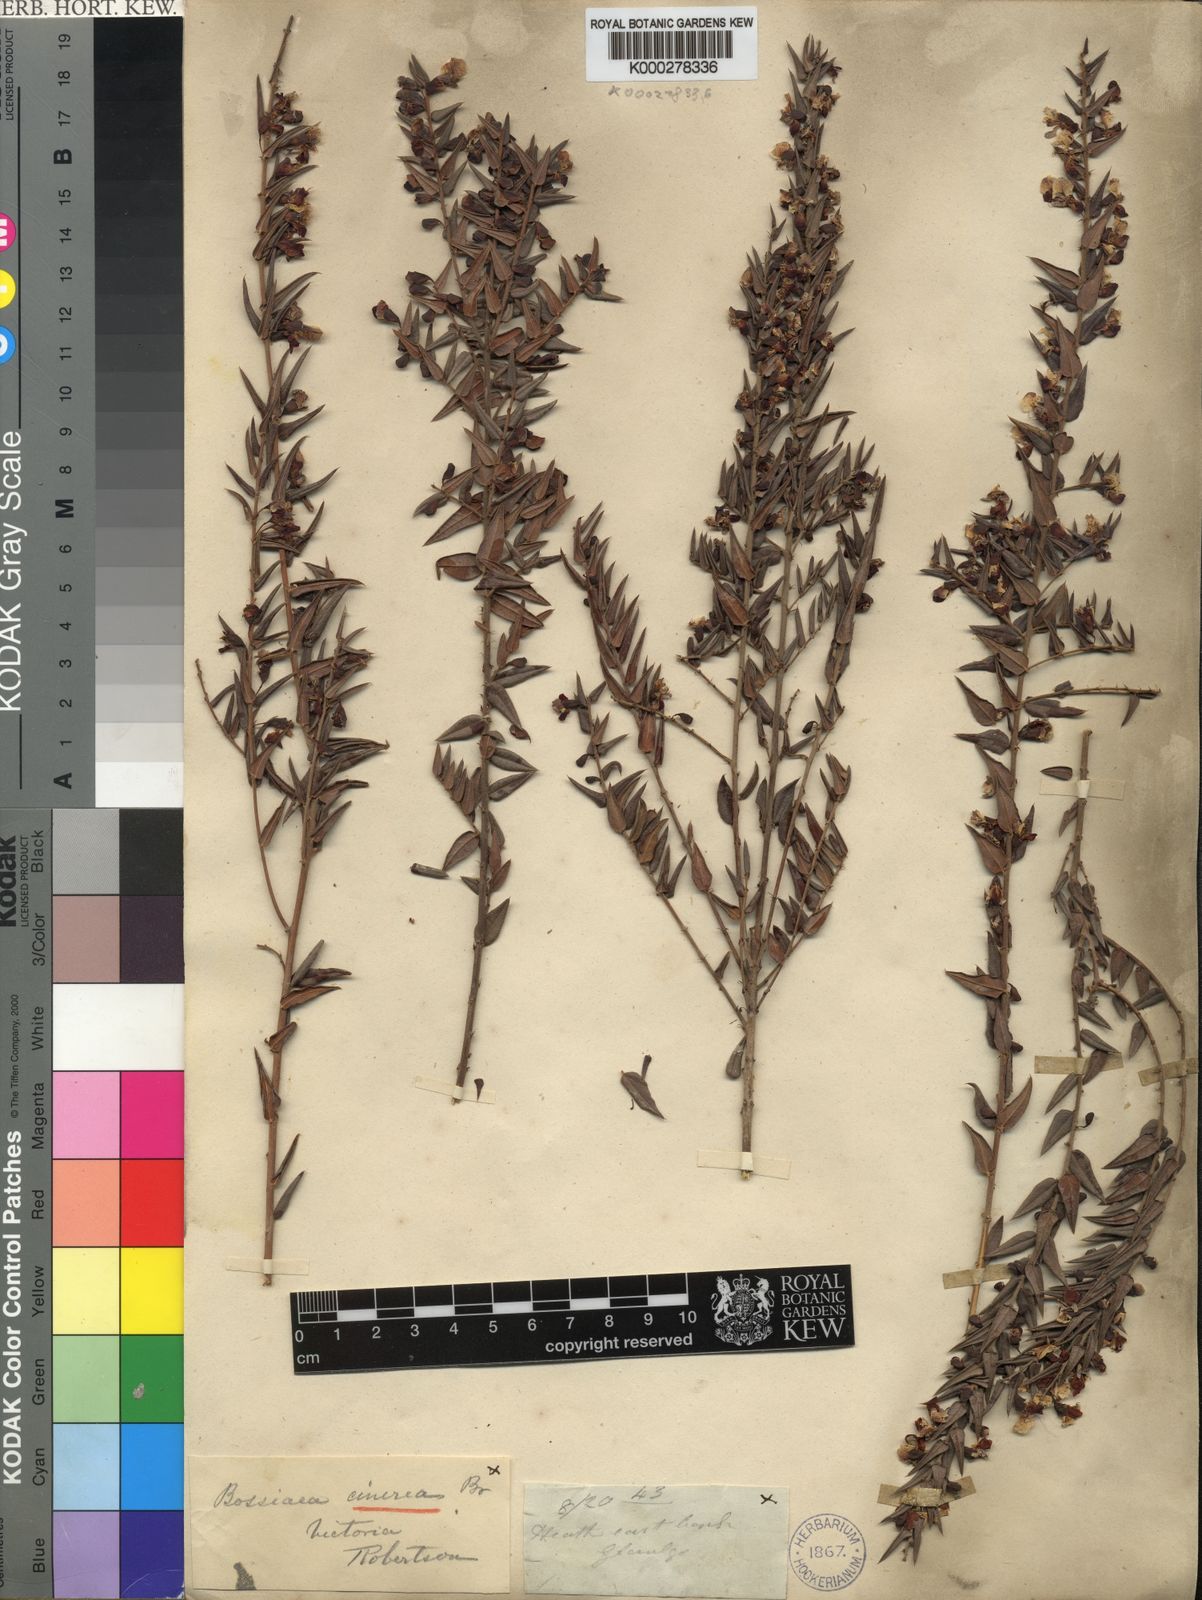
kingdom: Plantae
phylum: Tracheophyta
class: Magnoliopsida
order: Fabales
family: Fabaceae
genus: Bossiaea
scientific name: Bossiaea cinerea
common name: Showy bossiaea
